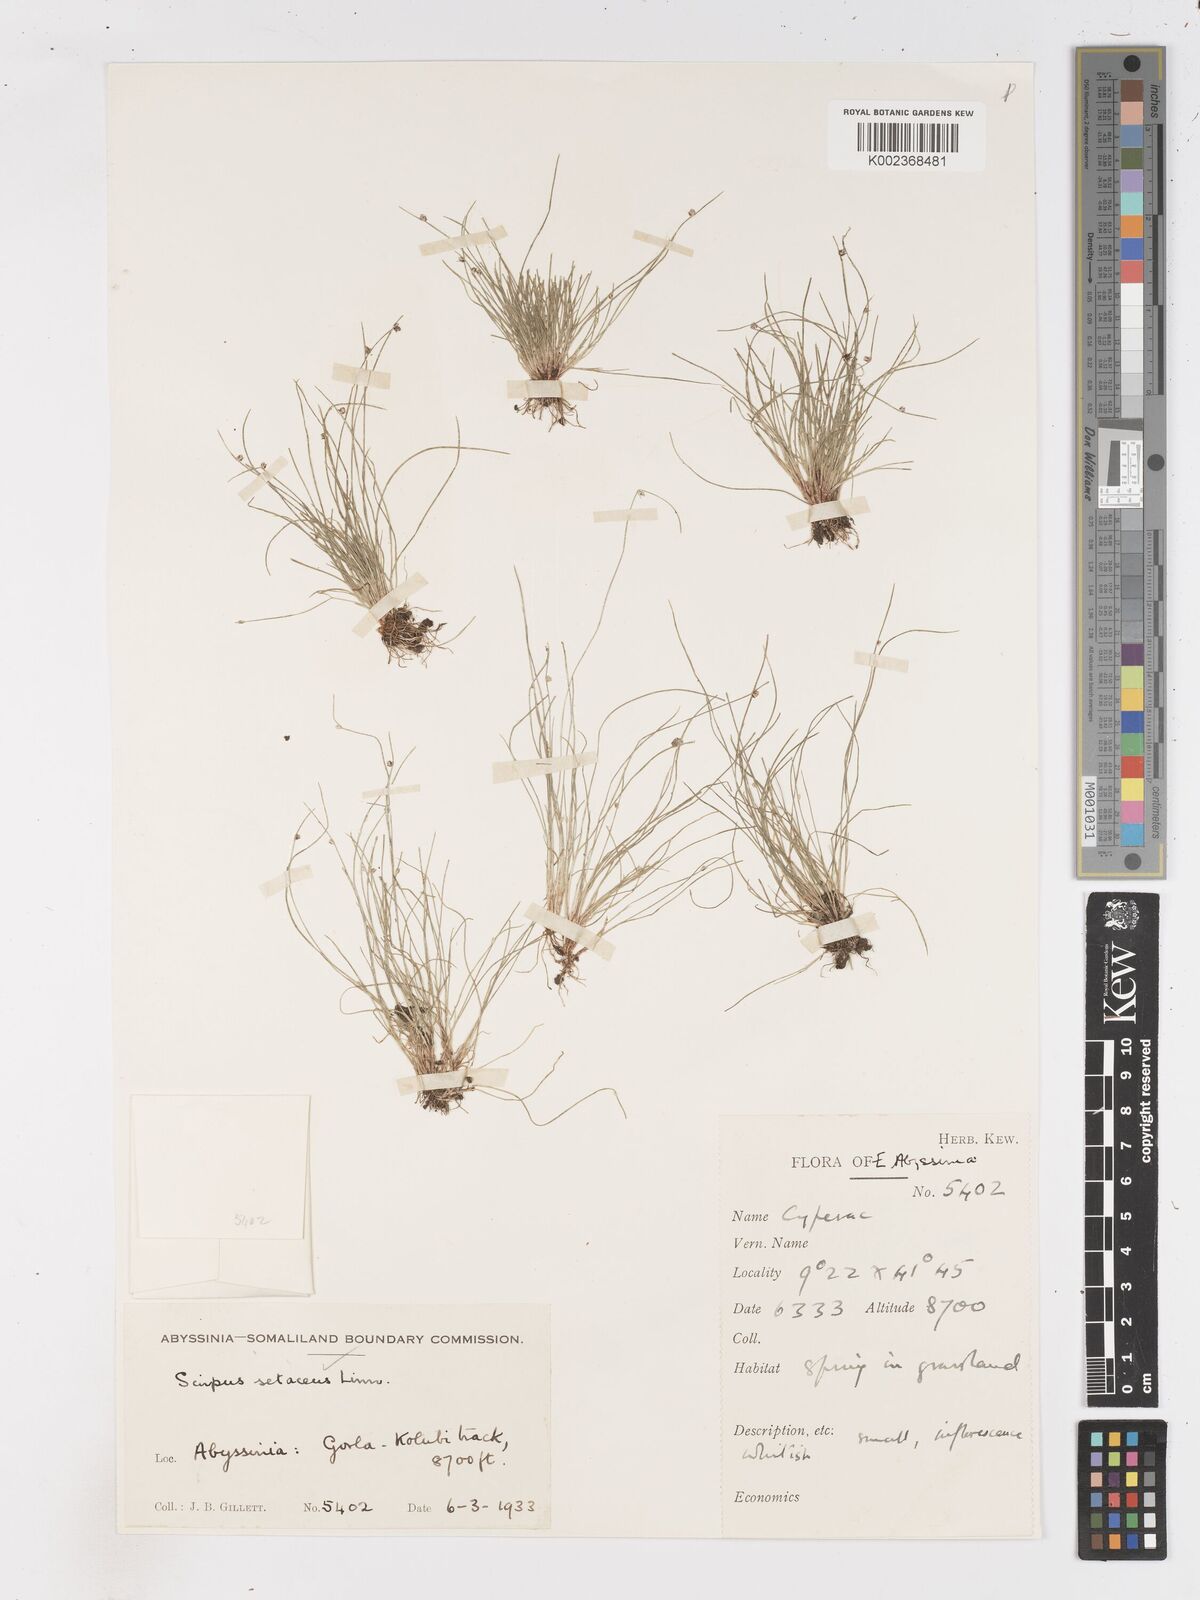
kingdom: Plantae
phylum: Tracheophyta
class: Liliopsida
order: Poales
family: Cyperaceae
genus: Isolepis
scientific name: Isolepis setacea
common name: Bristle club-rush
